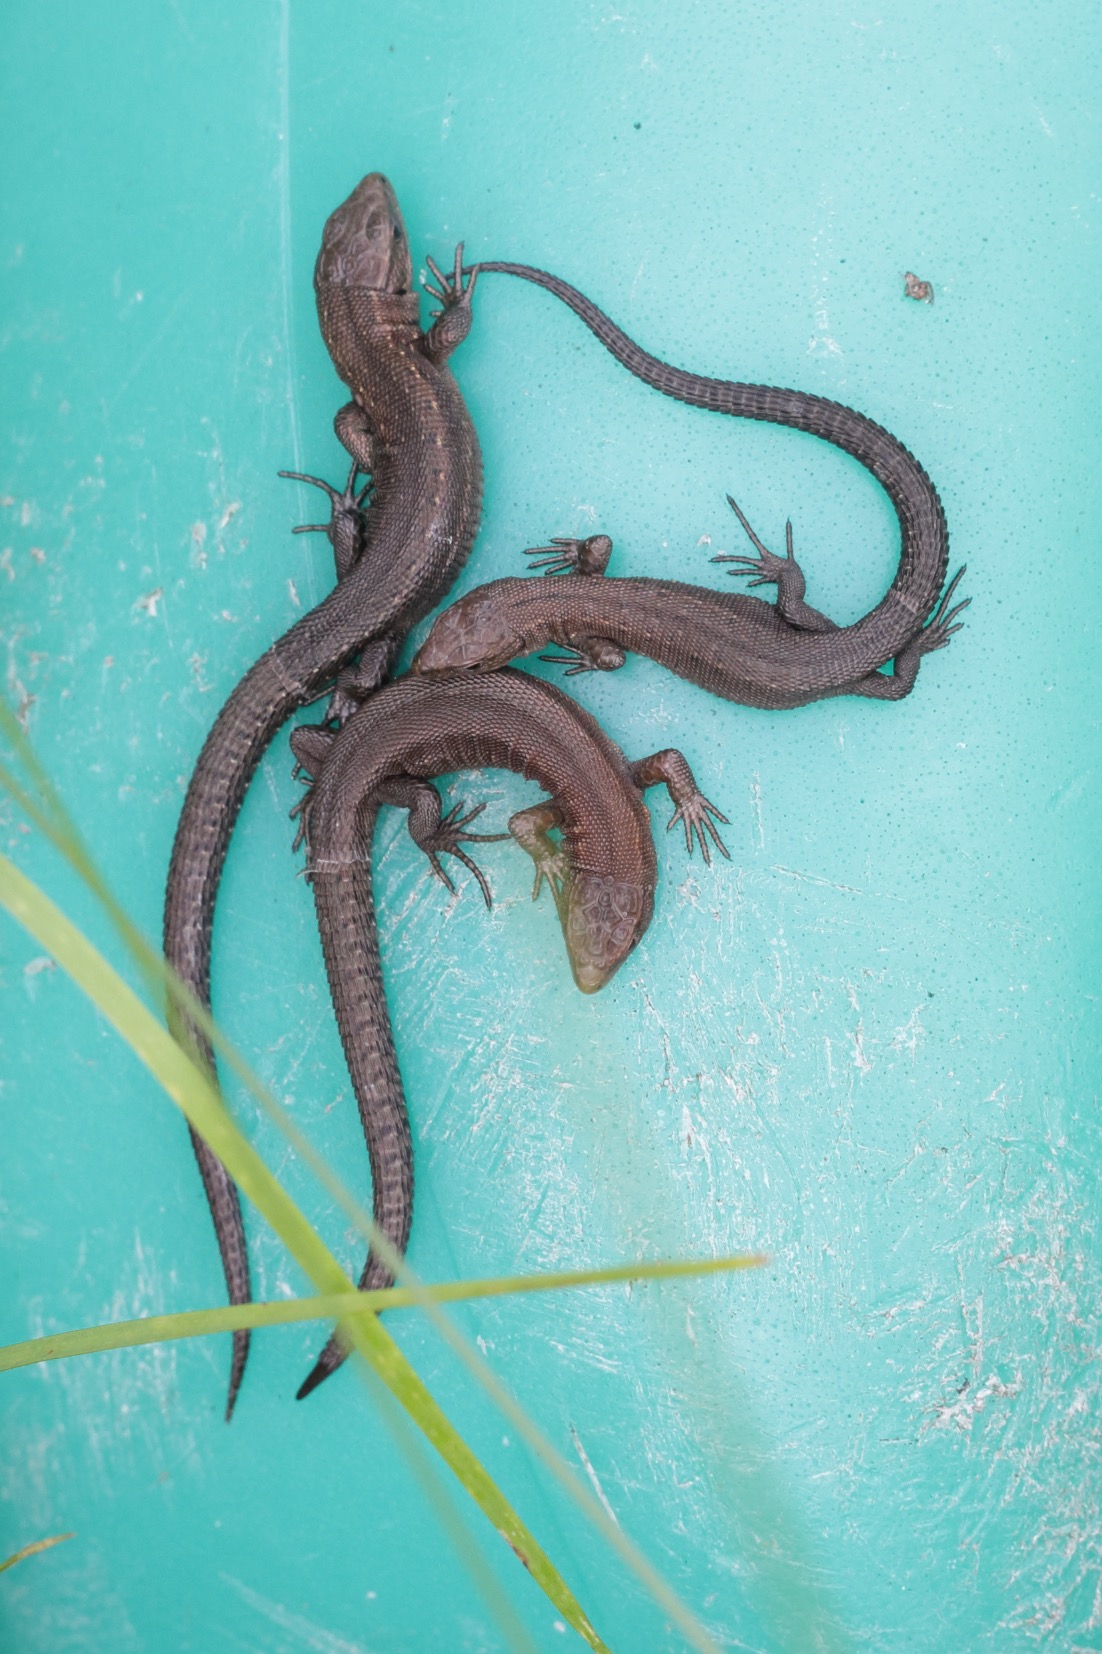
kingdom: Animalia
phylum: Chordata
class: Squamata
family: Lacertidae
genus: Zootoca
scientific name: Zootoca vivipara
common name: Skovfirben
